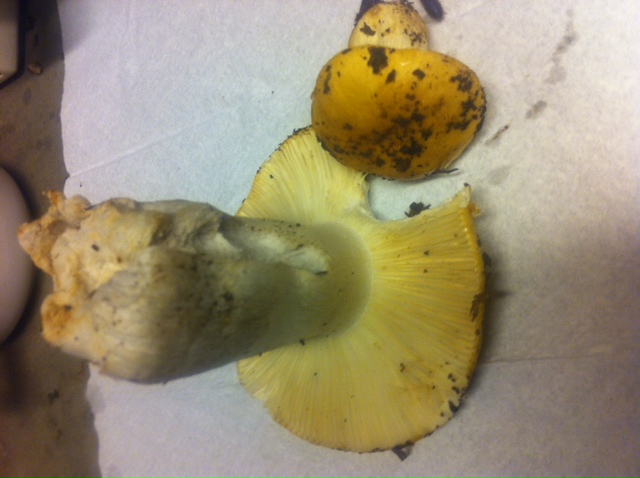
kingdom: Fungi
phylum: Basidiomycota
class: Agaricomycetes
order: Russulales
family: Russulaceae
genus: Russula
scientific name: Russula ochroleuca
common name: okkergul skørhat
